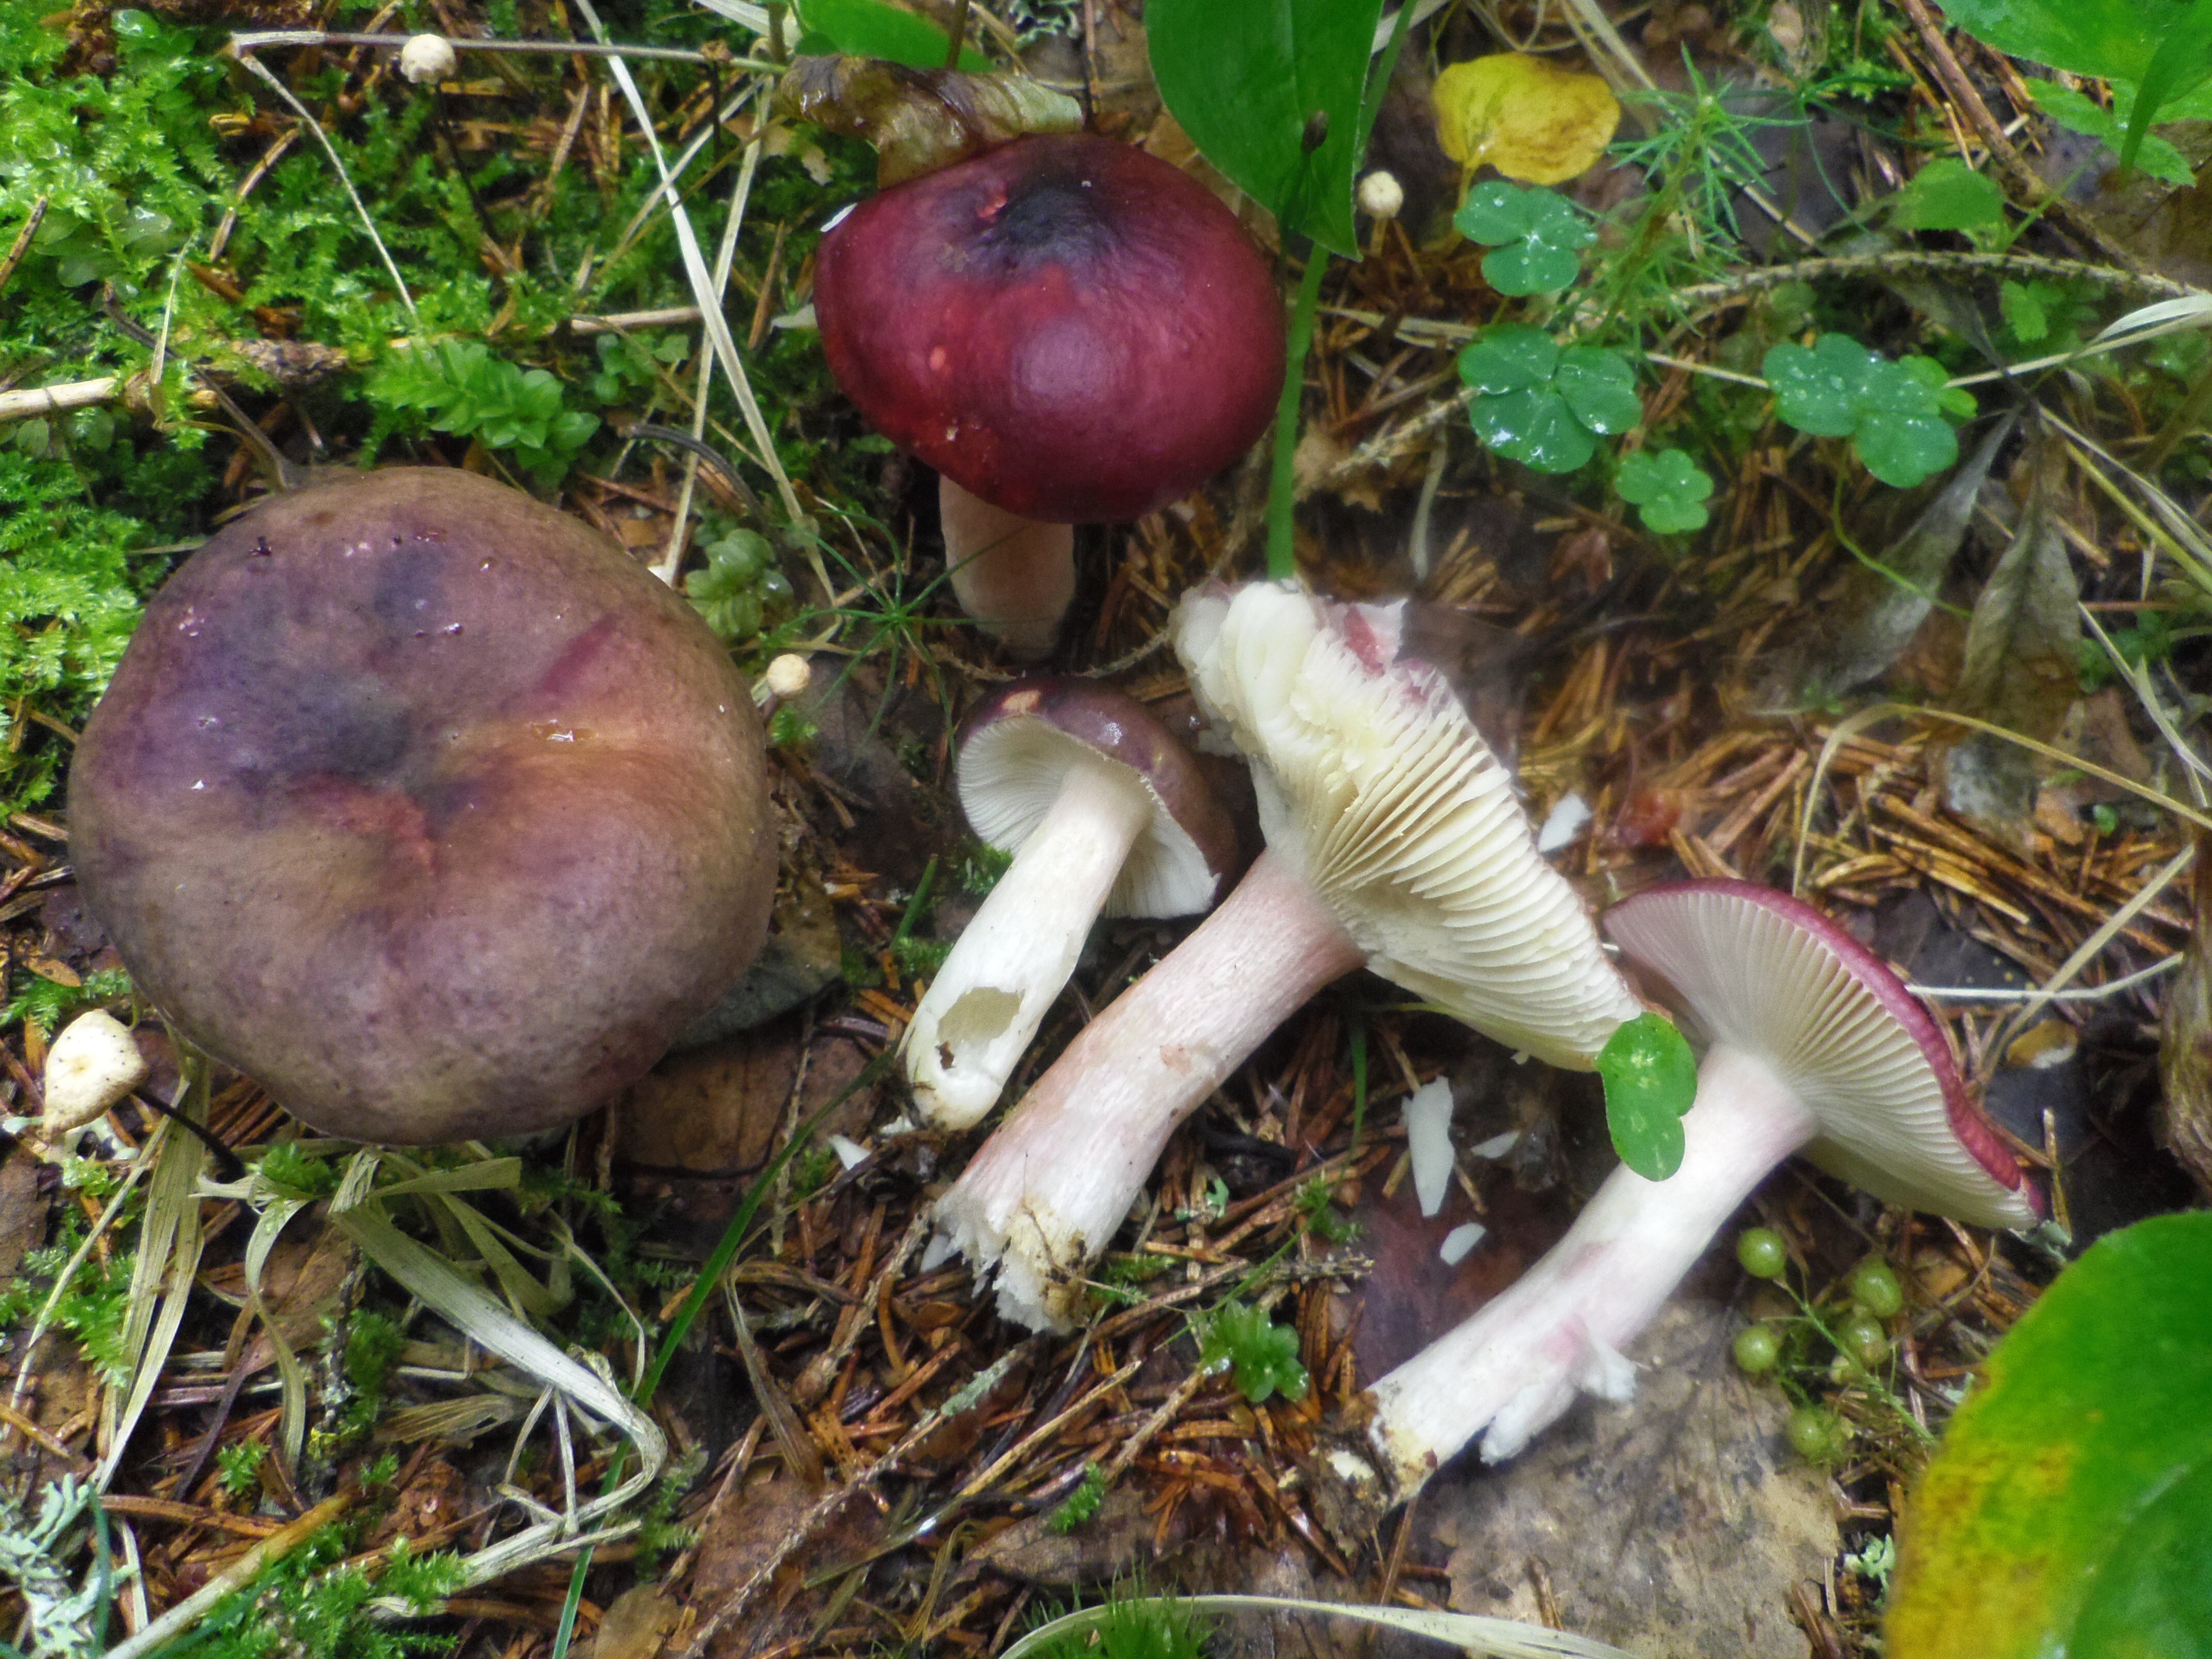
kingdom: Fungi
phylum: Basidiomycota
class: Agaricomycetes
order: Russulales
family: Russulaceae
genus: Russula
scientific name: Russula queletii
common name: Fruity brittlegill
